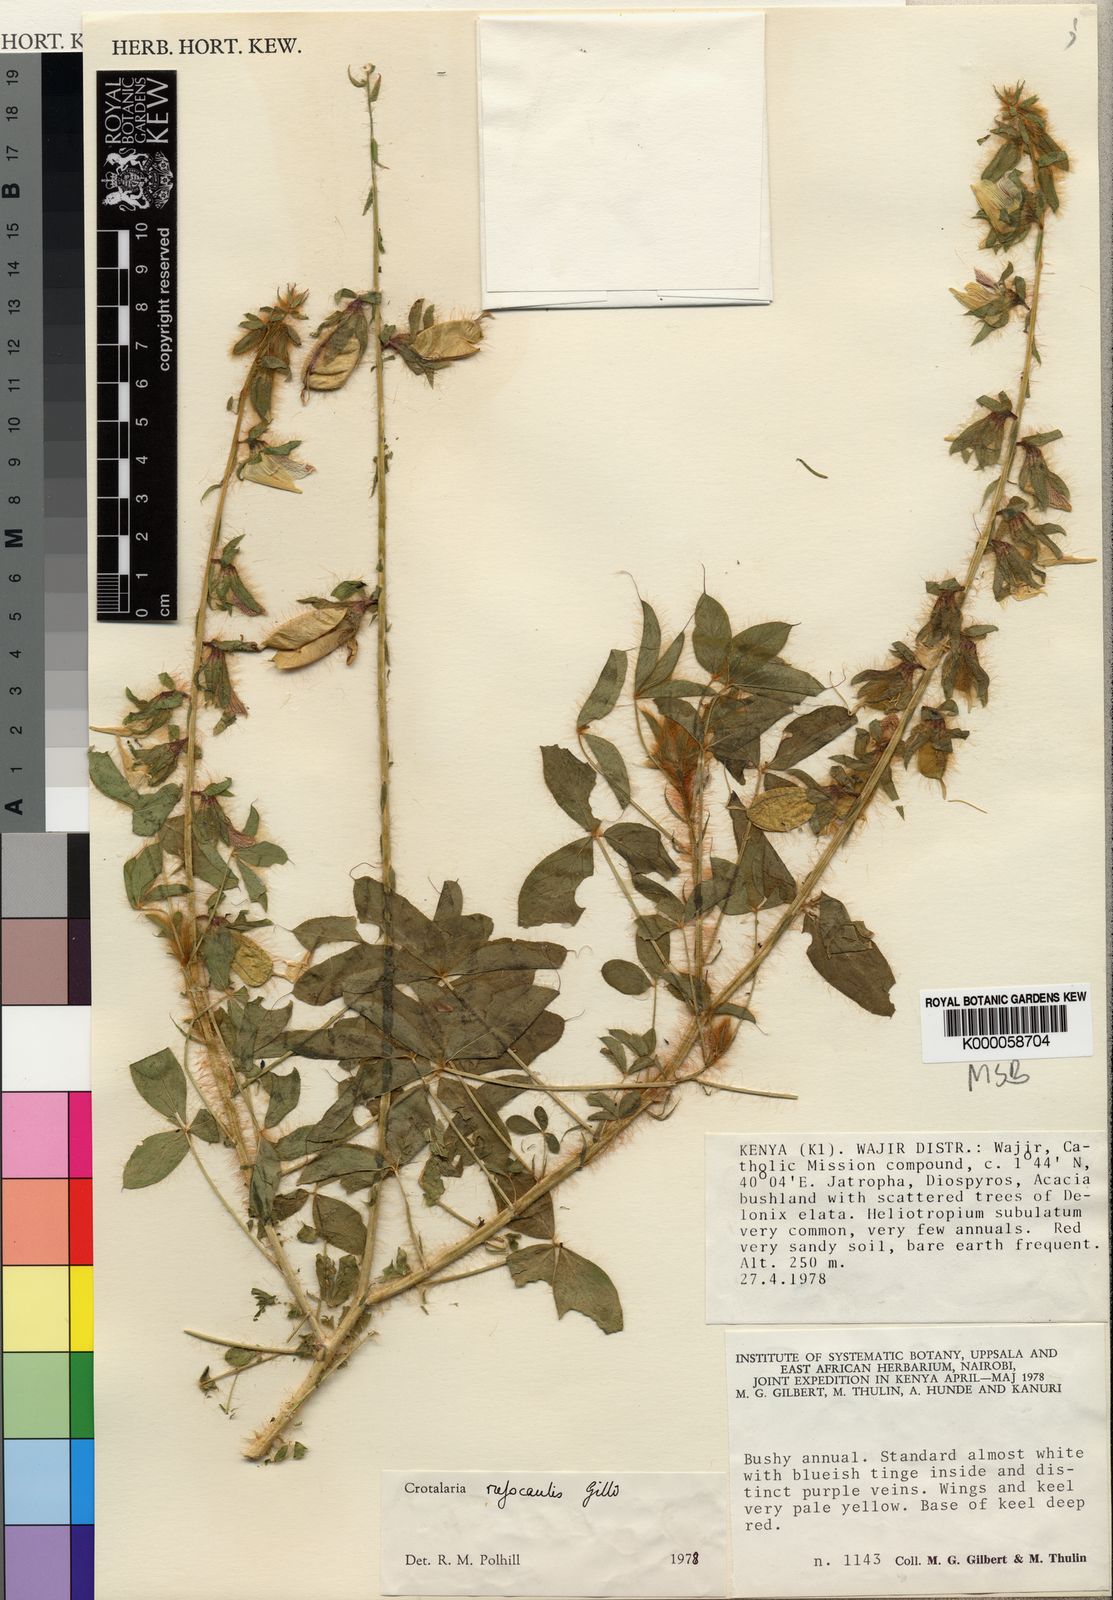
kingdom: Plantae
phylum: Tracheophyta
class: Magnoliopsida
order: Fabales
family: Fabaceae
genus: Crotalaria
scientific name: Crotalaria rufocaulis
